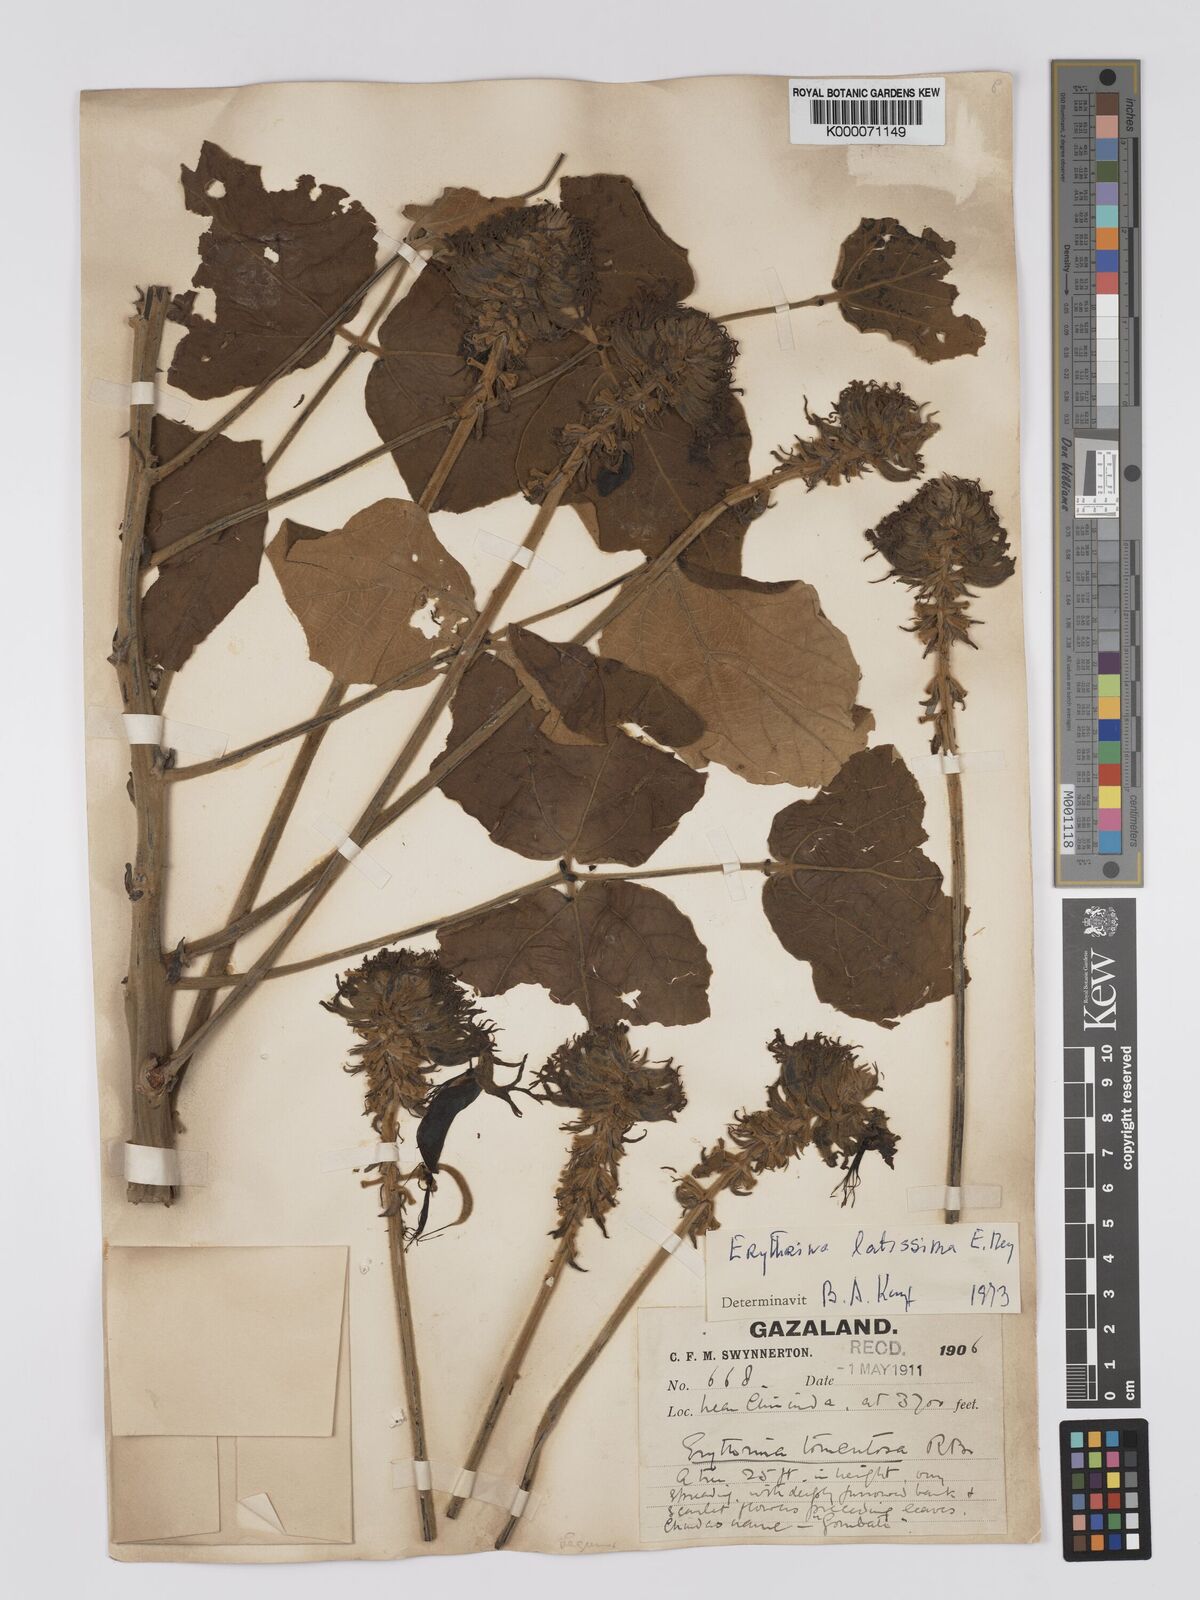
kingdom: Plantae
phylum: Tracheophyta
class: Magnoliopsida
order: Fabales
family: Fabaceae
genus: Erythrina
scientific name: Erythrina latissima
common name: Broad-leaved coral tree
